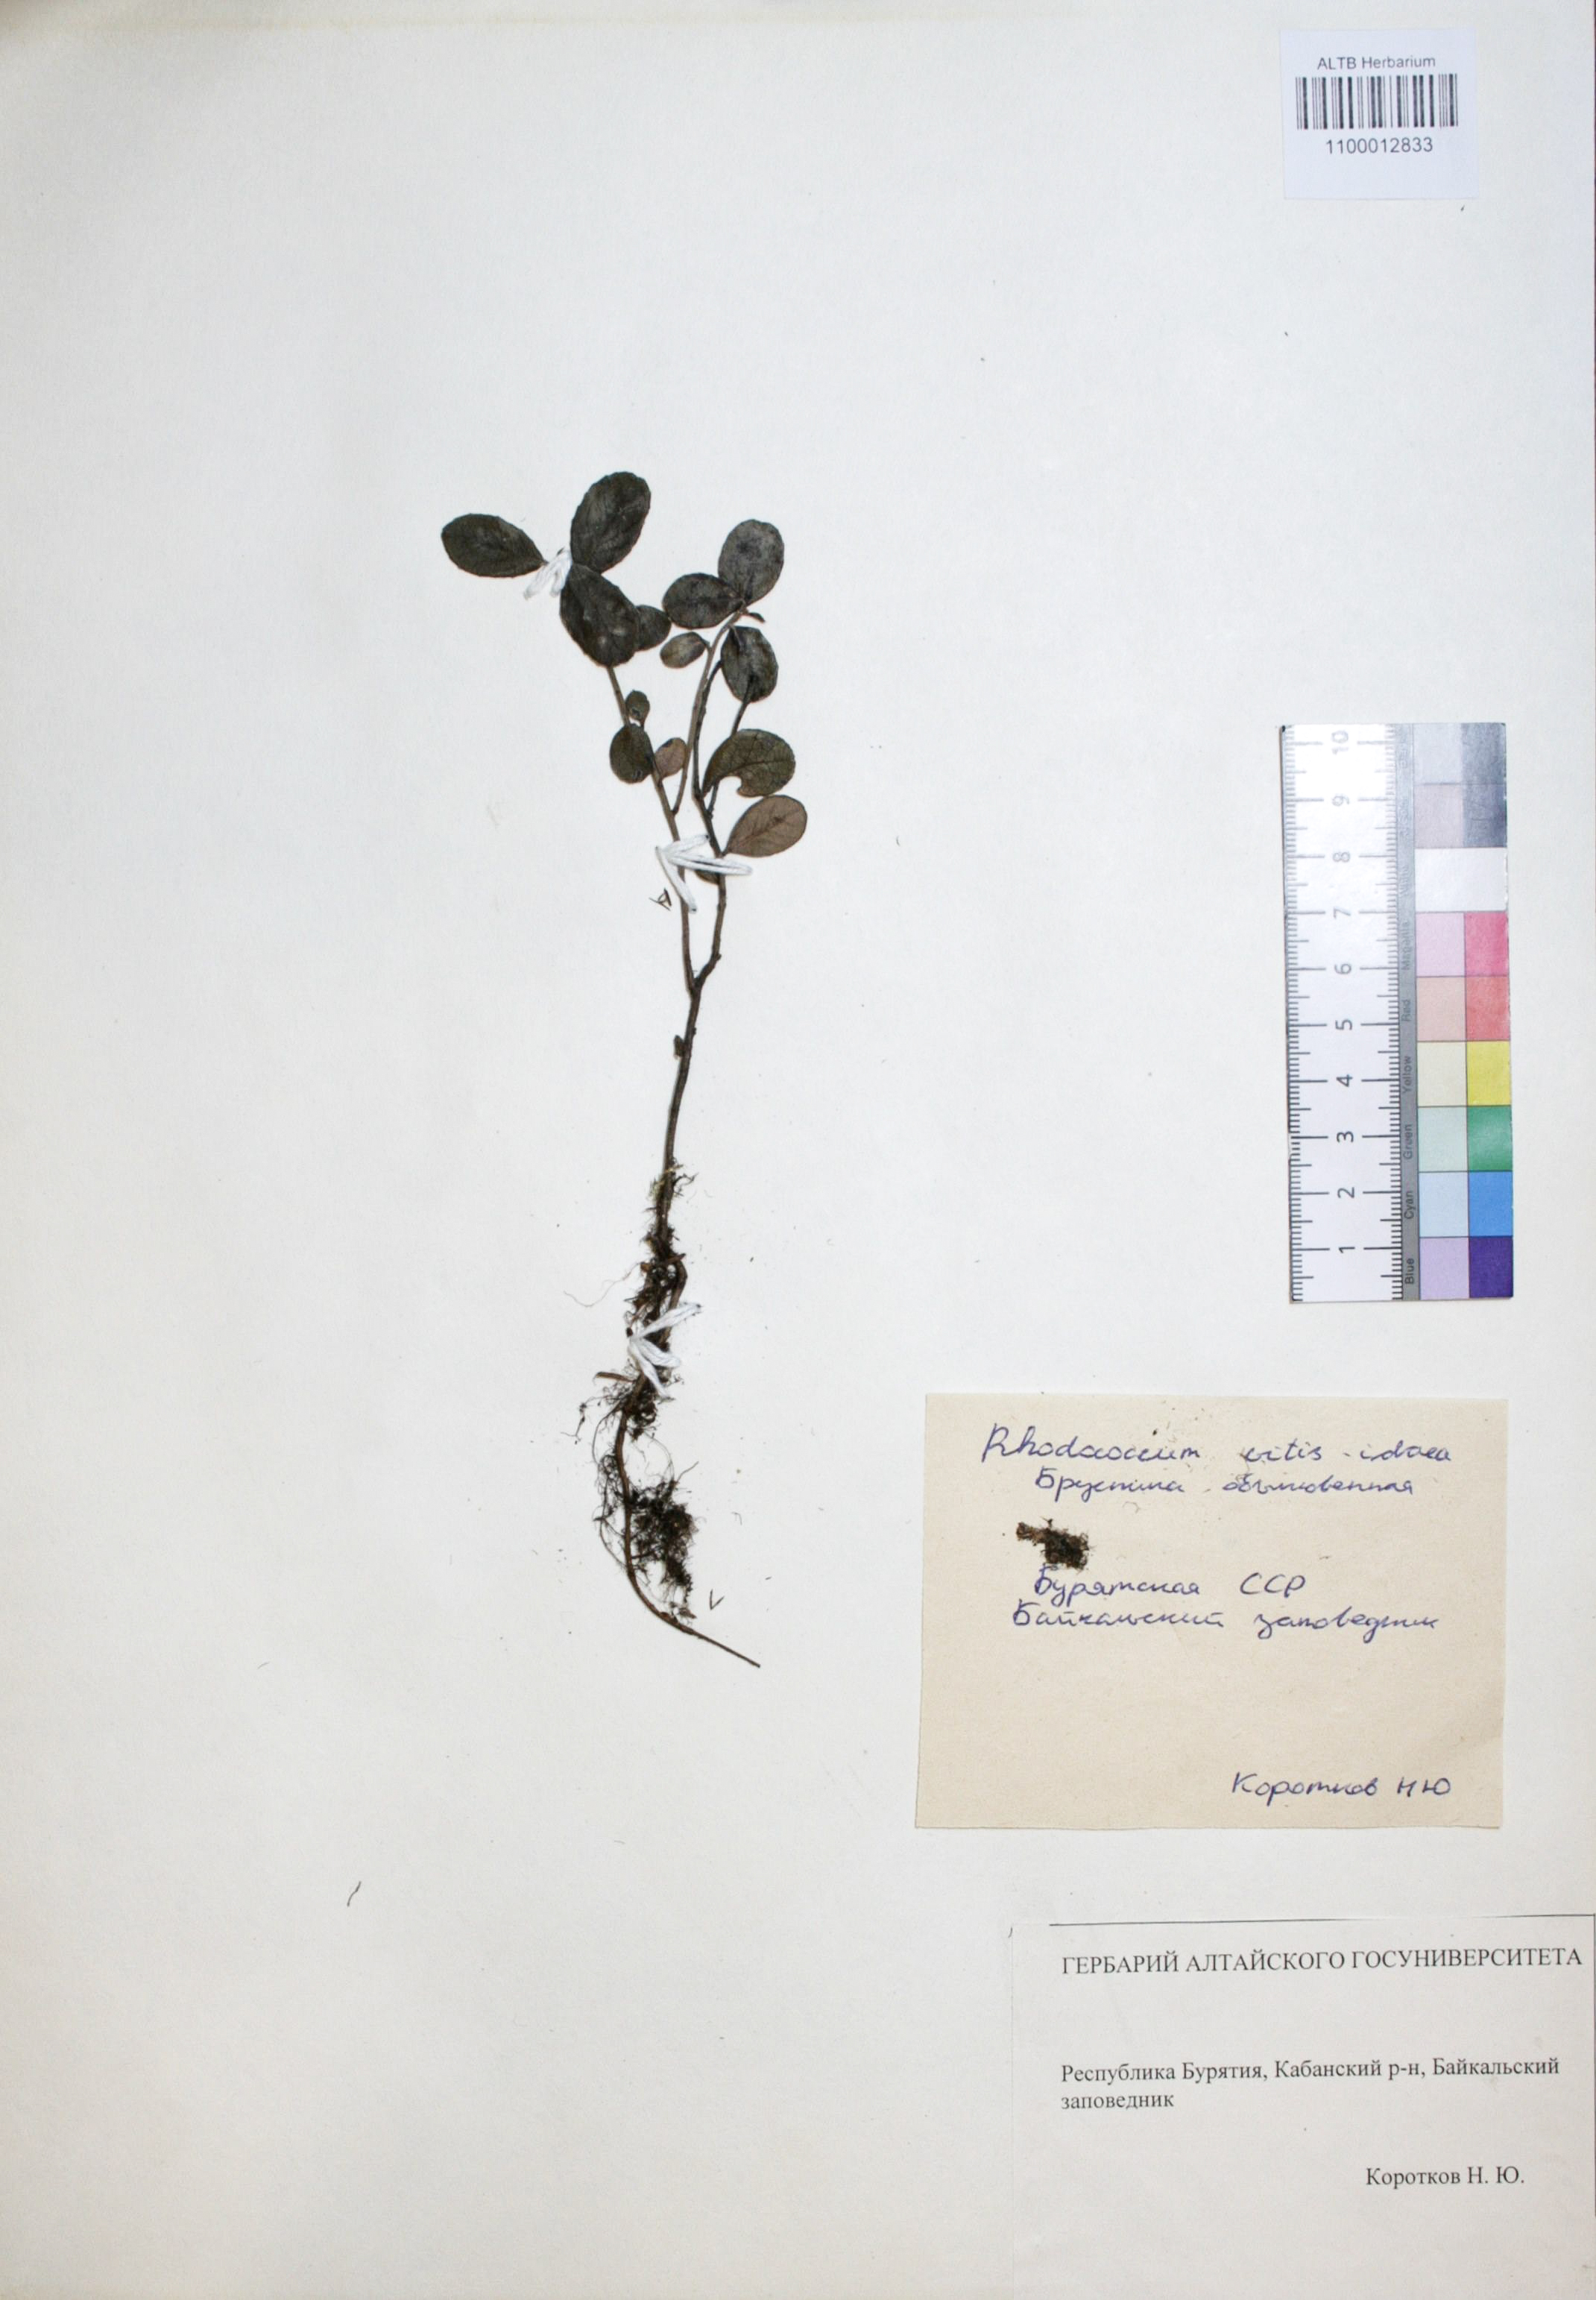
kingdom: Plantae
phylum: Tracheophyta
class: Magnoliopsida
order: Ericales
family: Ericaceae
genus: Vaccinium
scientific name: Vaccinium vitis-idaea
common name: Cowberry
